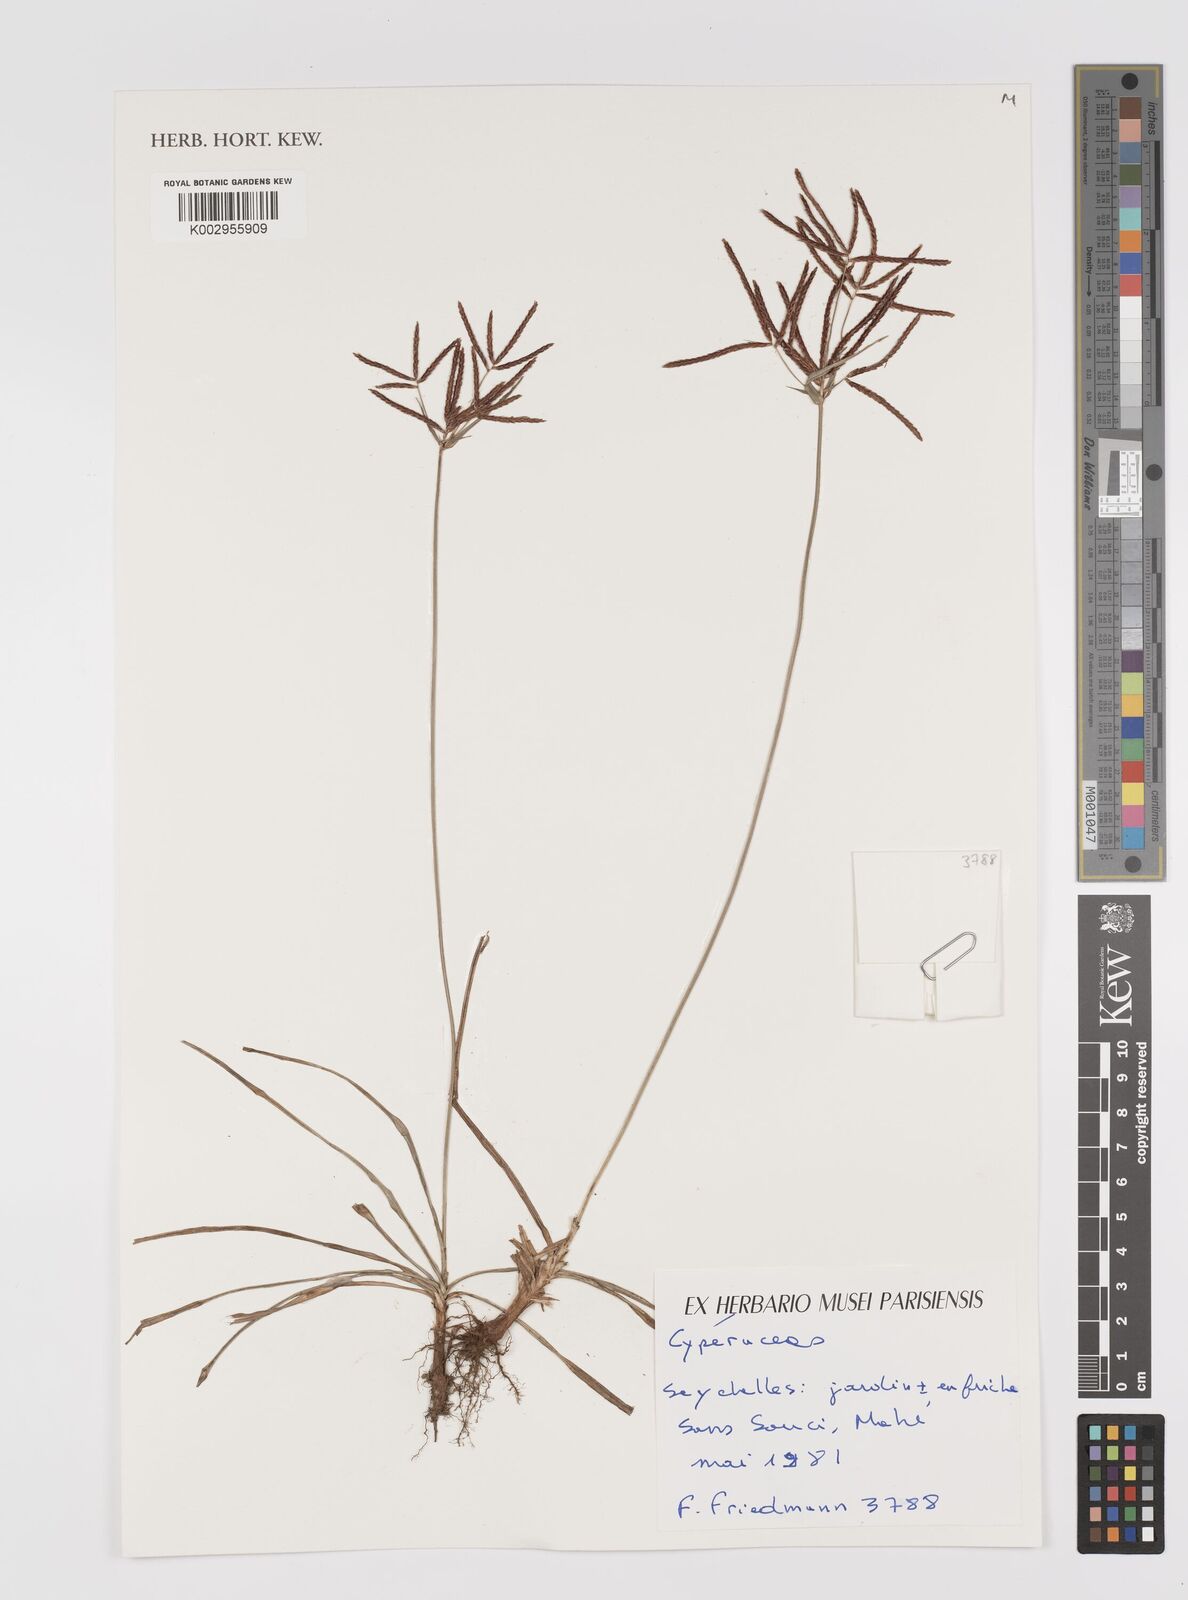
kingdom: Plantae
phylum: Tracheophyta
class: Liliopsida
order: Poales
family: Cyperaceae
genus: Cyperus
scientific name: Cyperus
